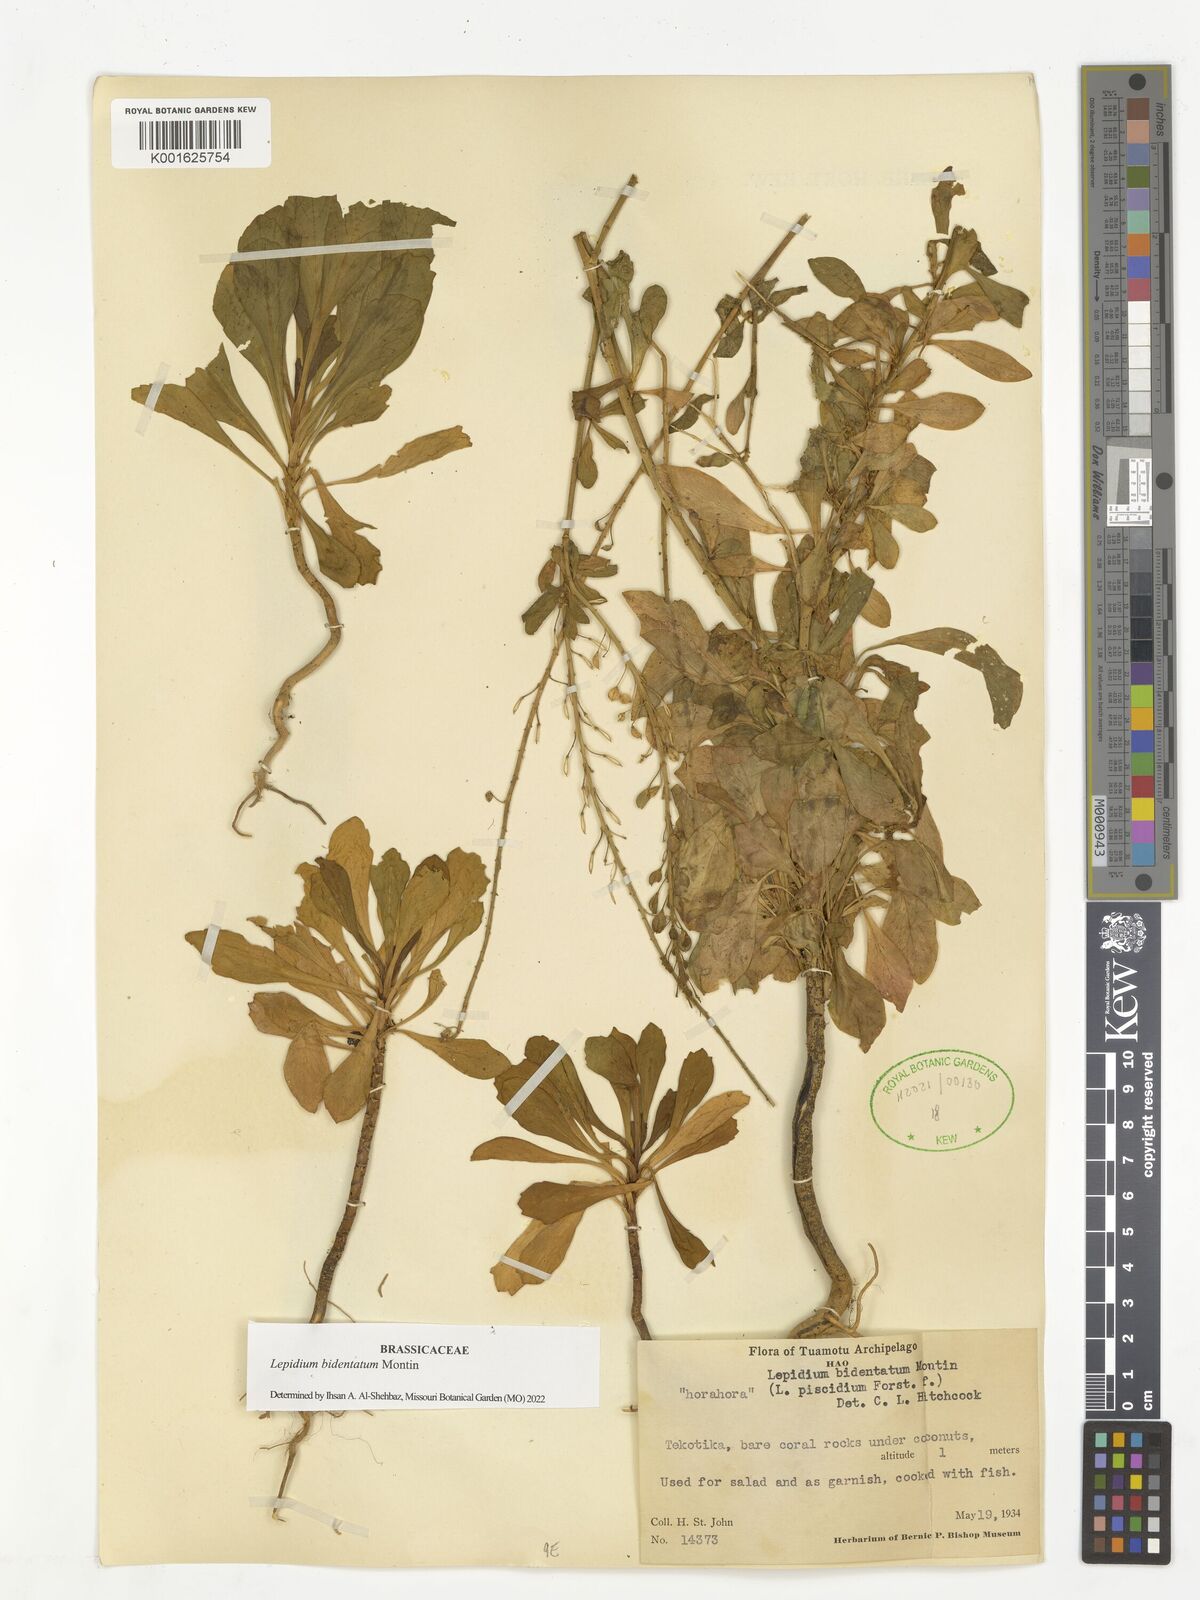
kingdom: Plantae
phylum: Tracheophyta
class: Magnoliopsida
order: Brassicales
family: Brassicaceae
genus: Lepidium
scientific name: Lepidium bidentatum
